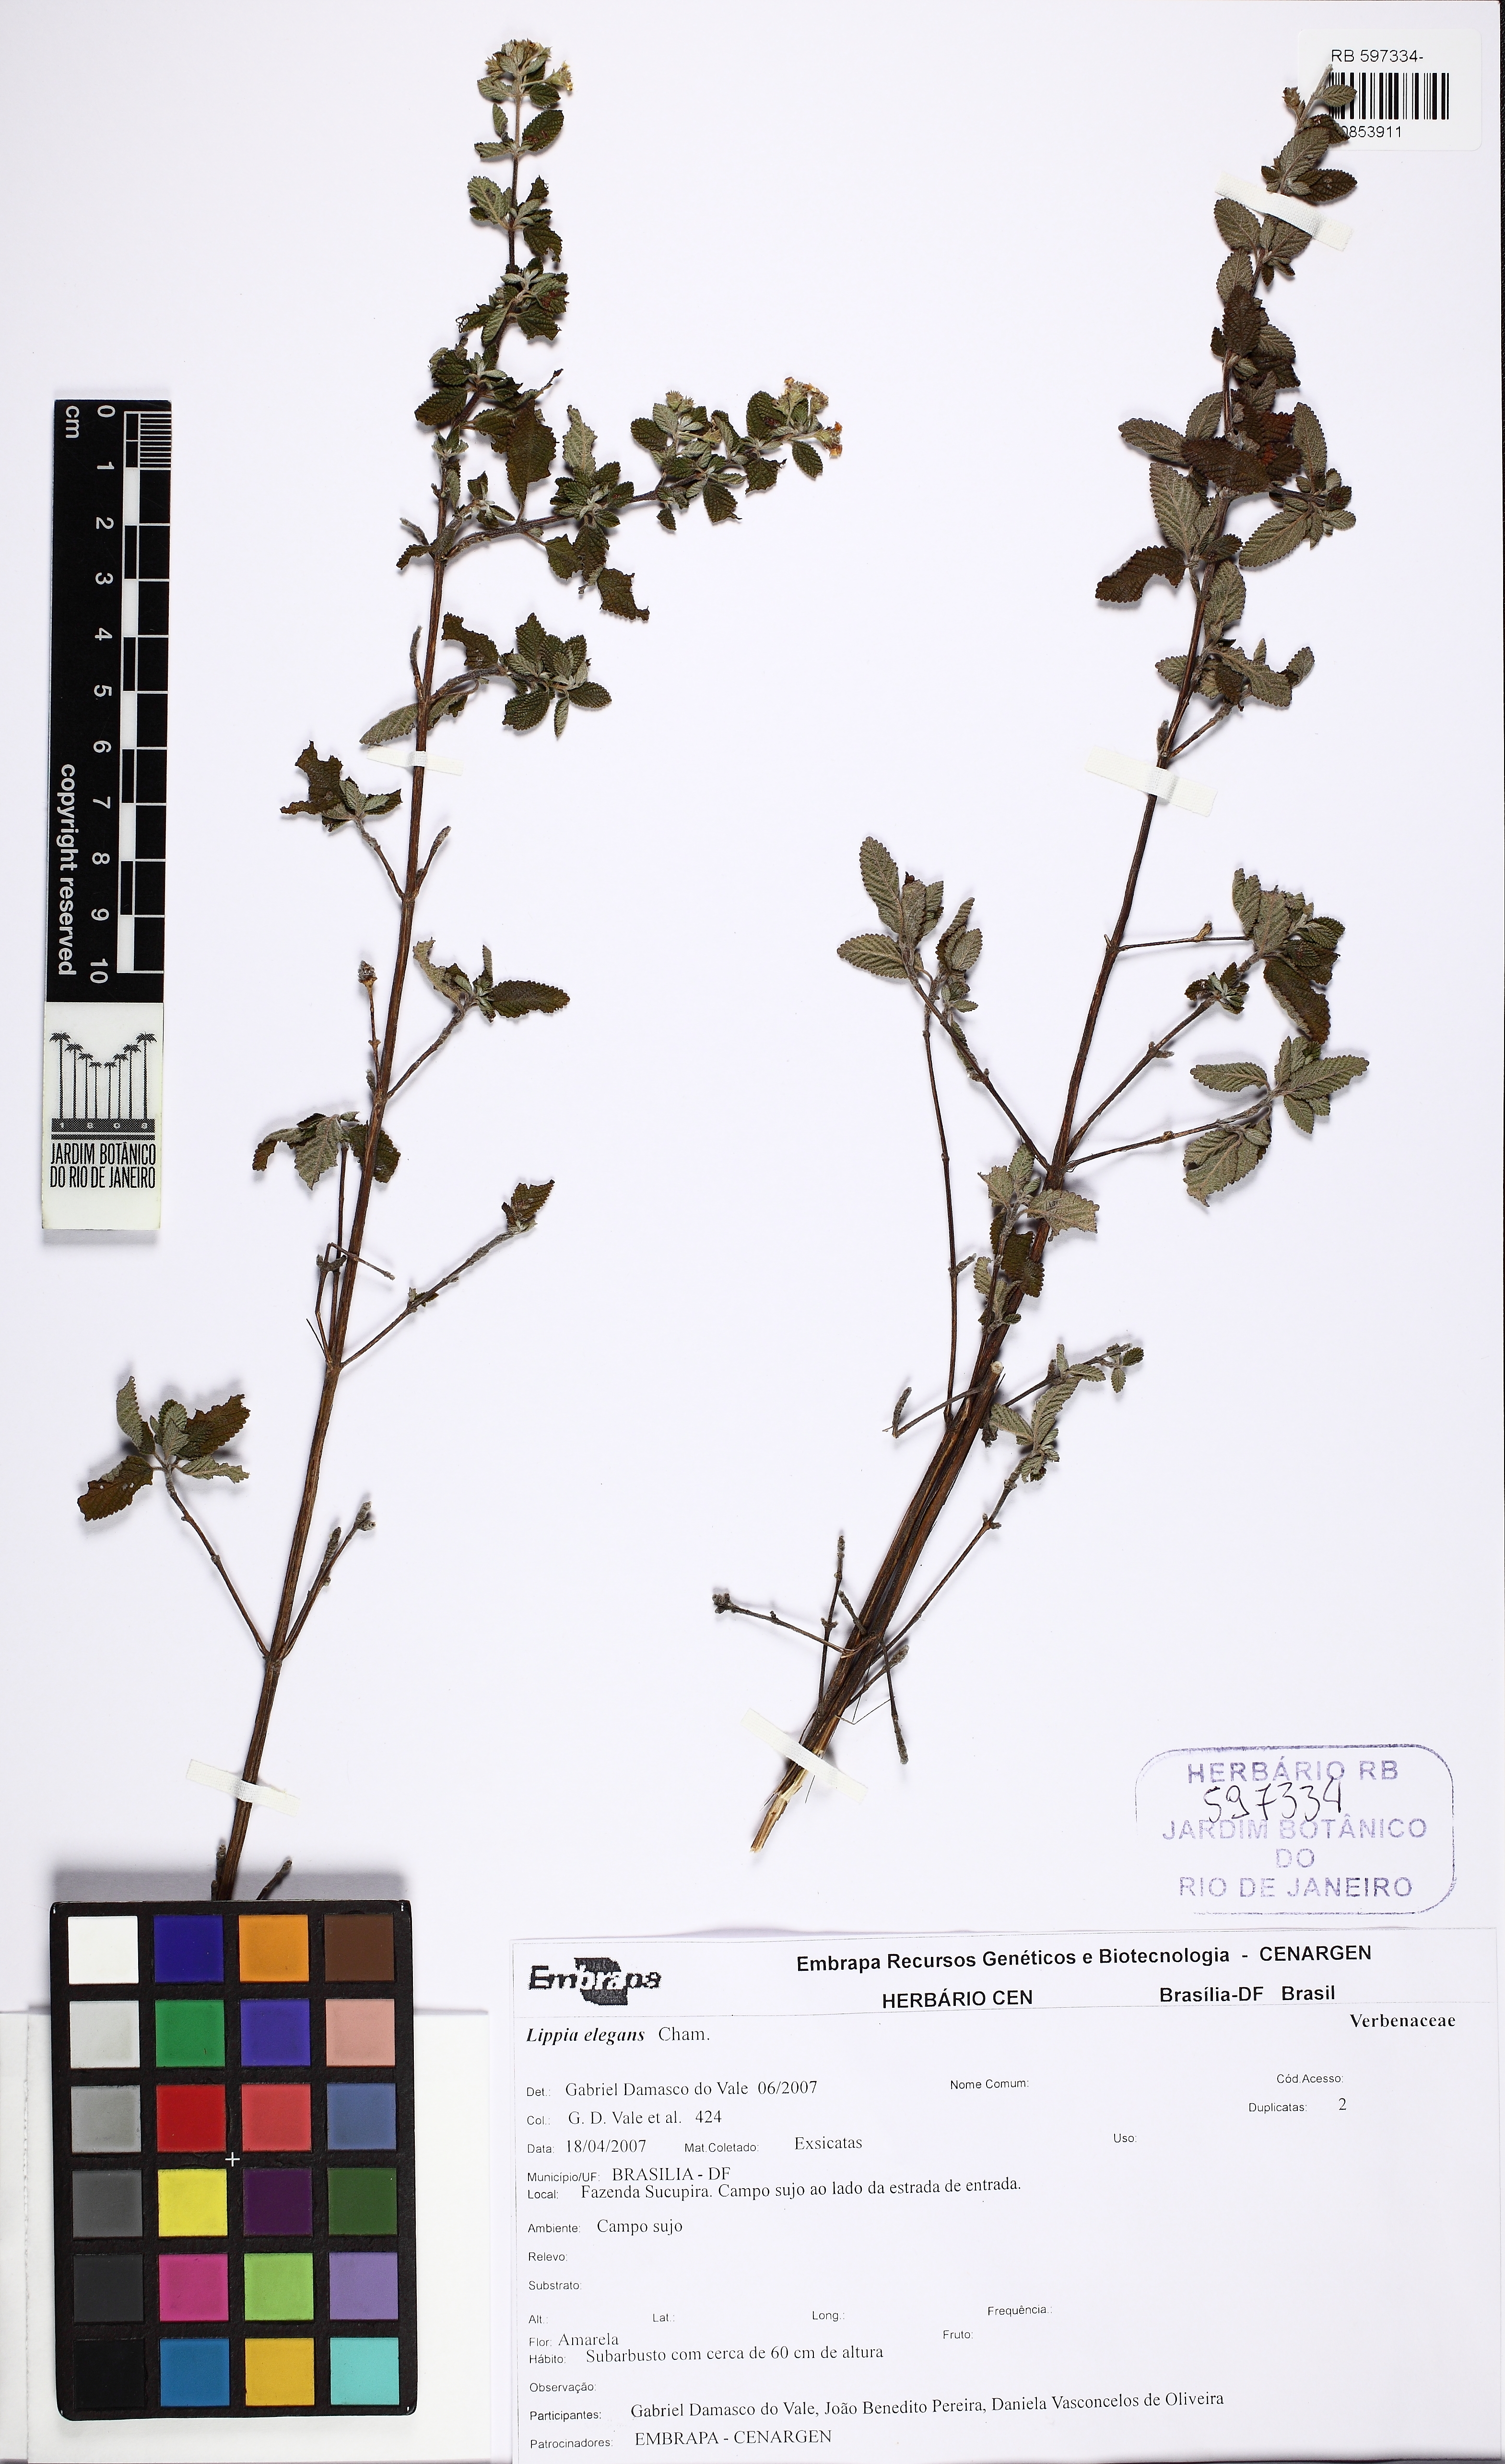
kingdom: Plantae
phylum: Tracheophyta
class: Magnoliopsida
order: Lamiales
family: Verbenaceae
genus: Lippia
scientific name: Lippia origanoides
